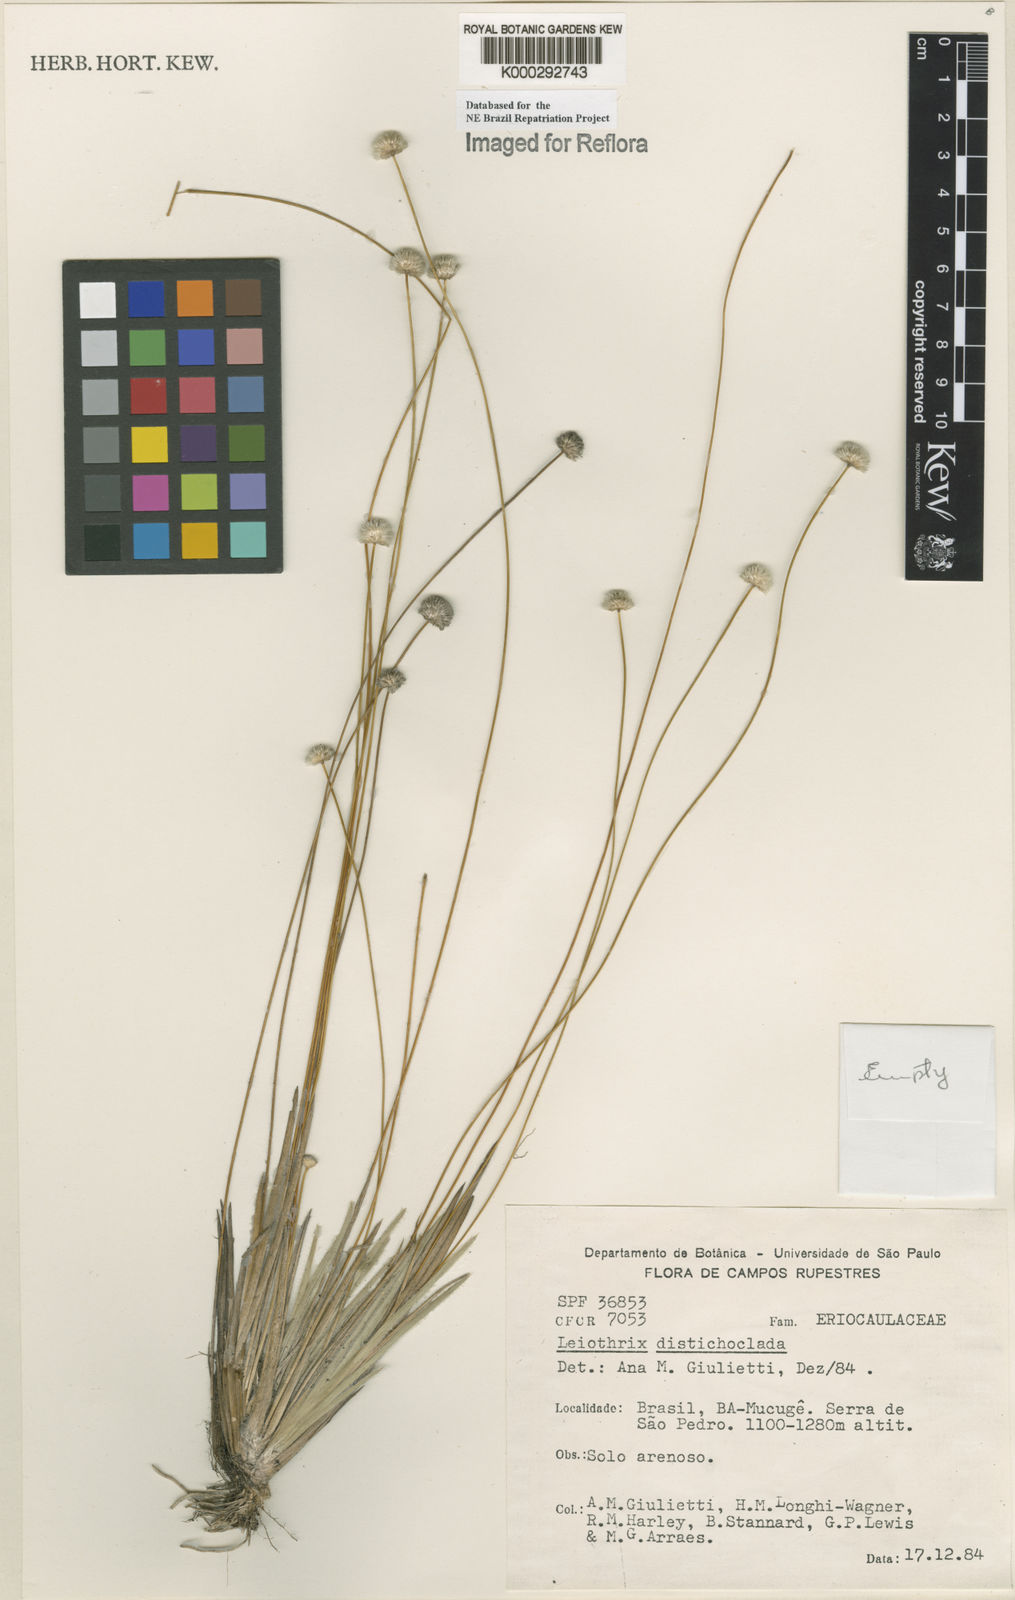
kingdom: Plantae
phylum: Tracheophyta
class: Liliopsida
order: Poales
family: Eriocaulaceae
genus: Leiothrix
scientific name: Leiothrix distichoclada
